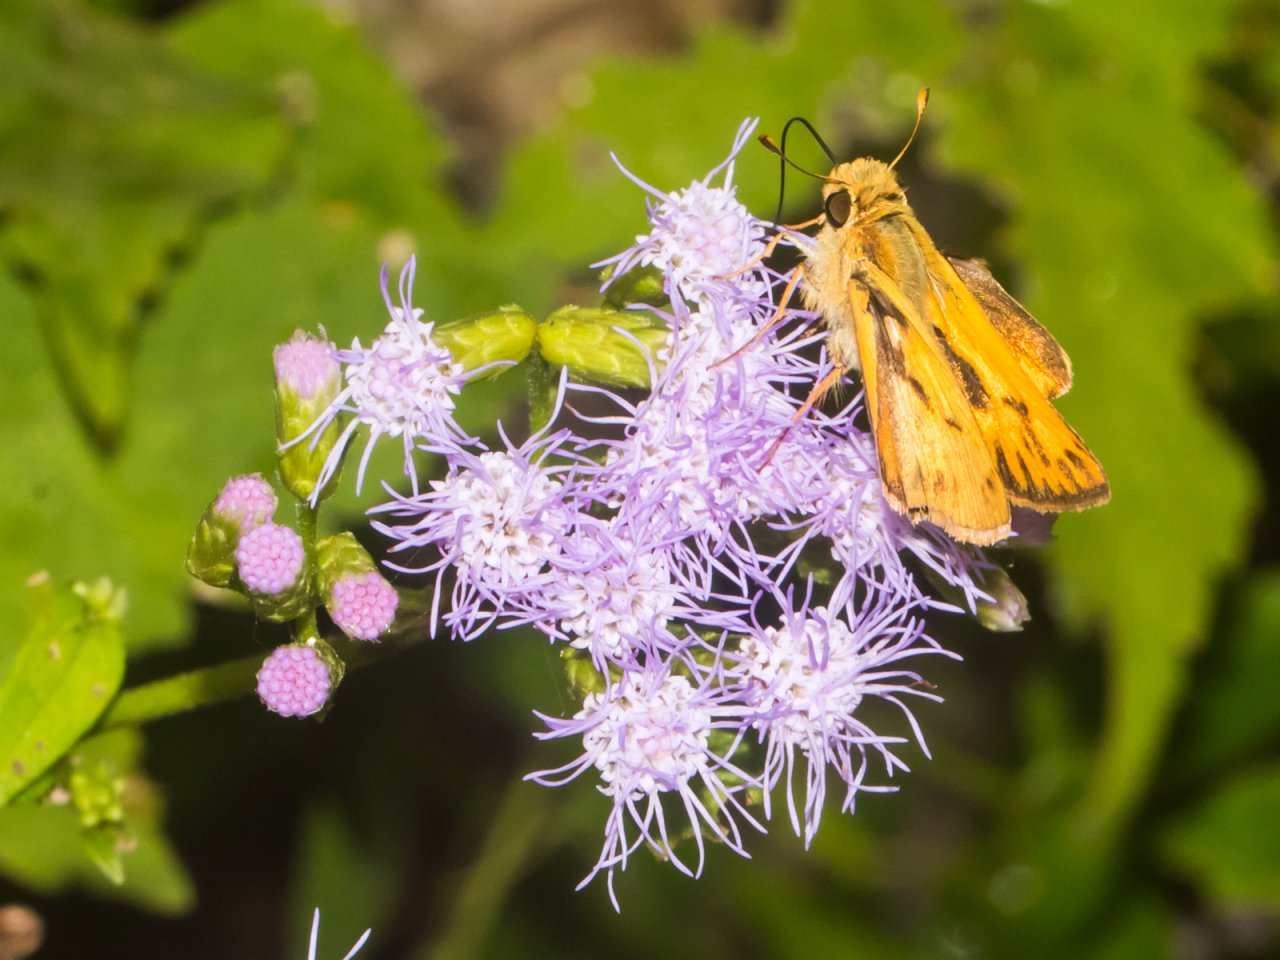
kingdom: Animalia
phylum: Arthropoda
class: Insecta
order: Lepidoptera
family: Hesperiidae
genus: Hylephila
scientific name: Hylephila phyleus
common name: Fiery Skipper
